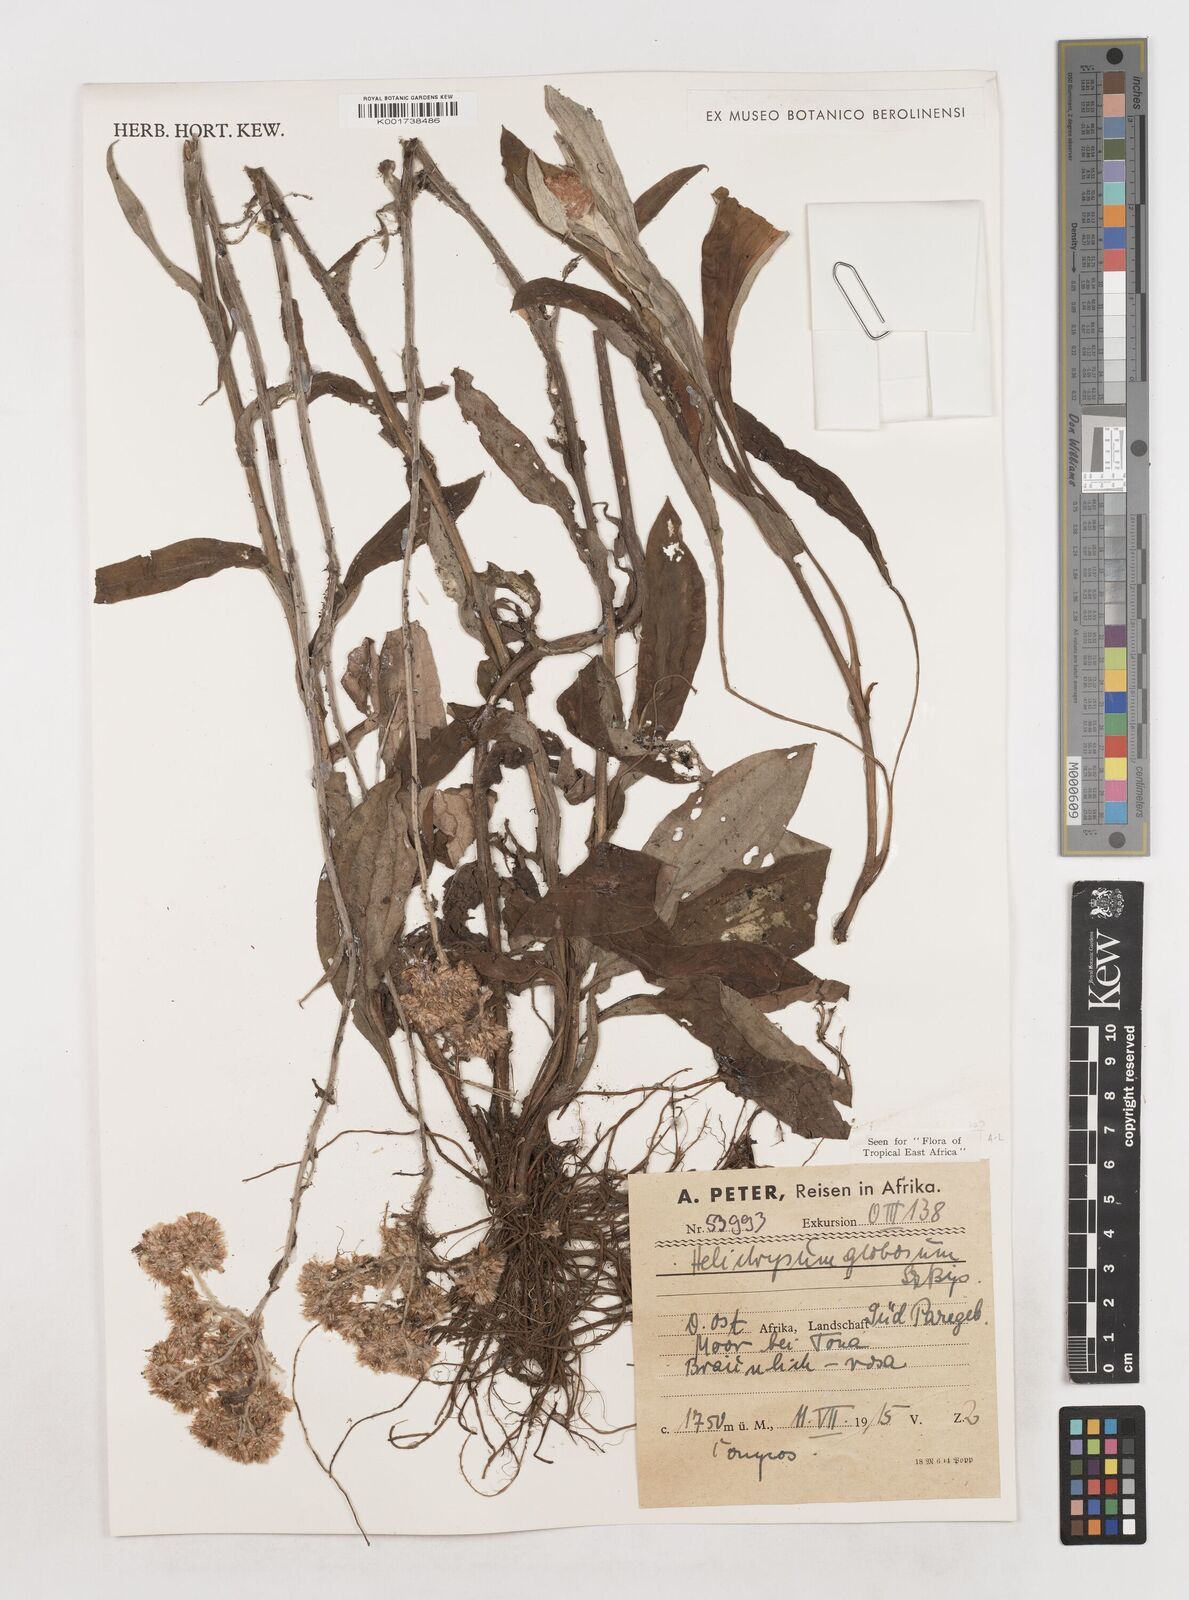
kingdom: Plantae
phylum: Tracheophyta
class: Magnoliopsida
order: Asterales
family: Asteraceae
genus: Helichrysum
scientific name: Helichrysum globosum
